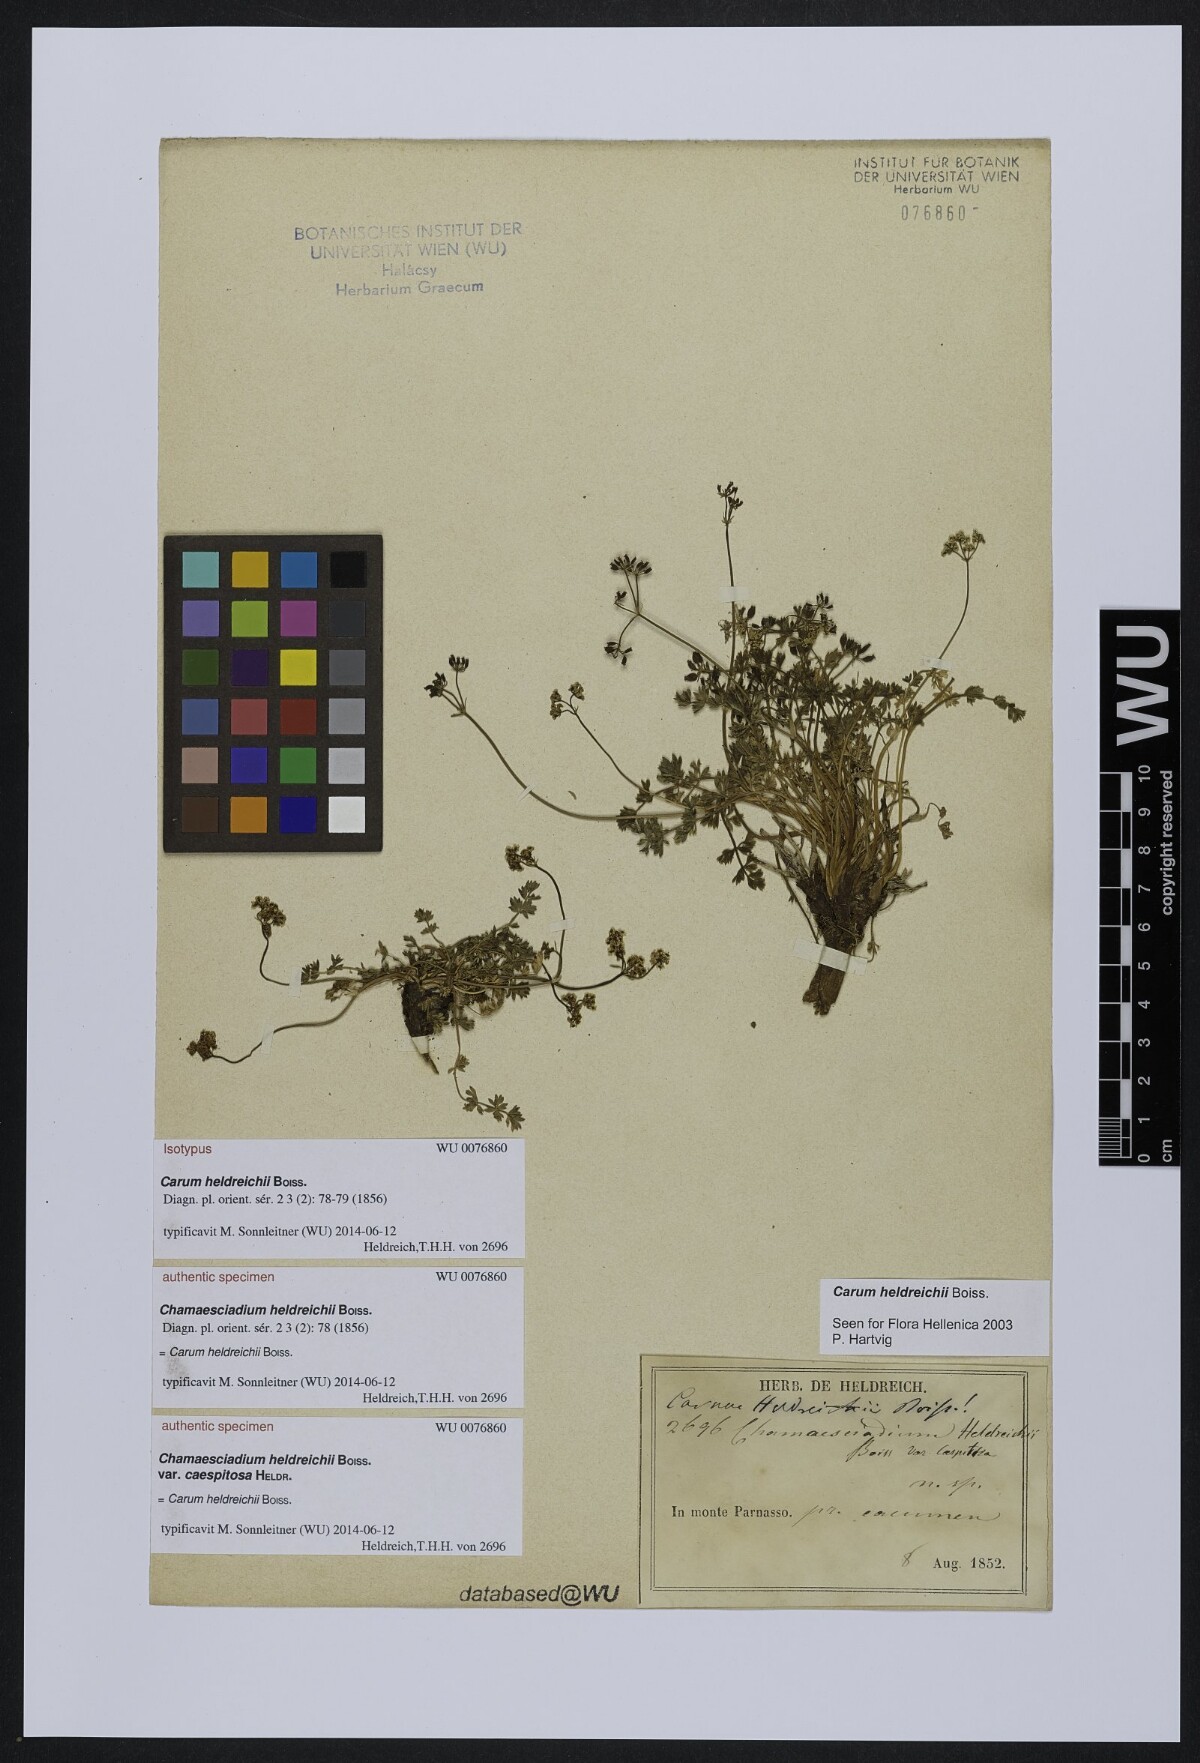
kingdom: Plantae
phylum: Tracheophyta
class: Magnoliopsida
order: Apiales
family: Apiaceae
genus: Carum
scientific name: Carum heldreichii
